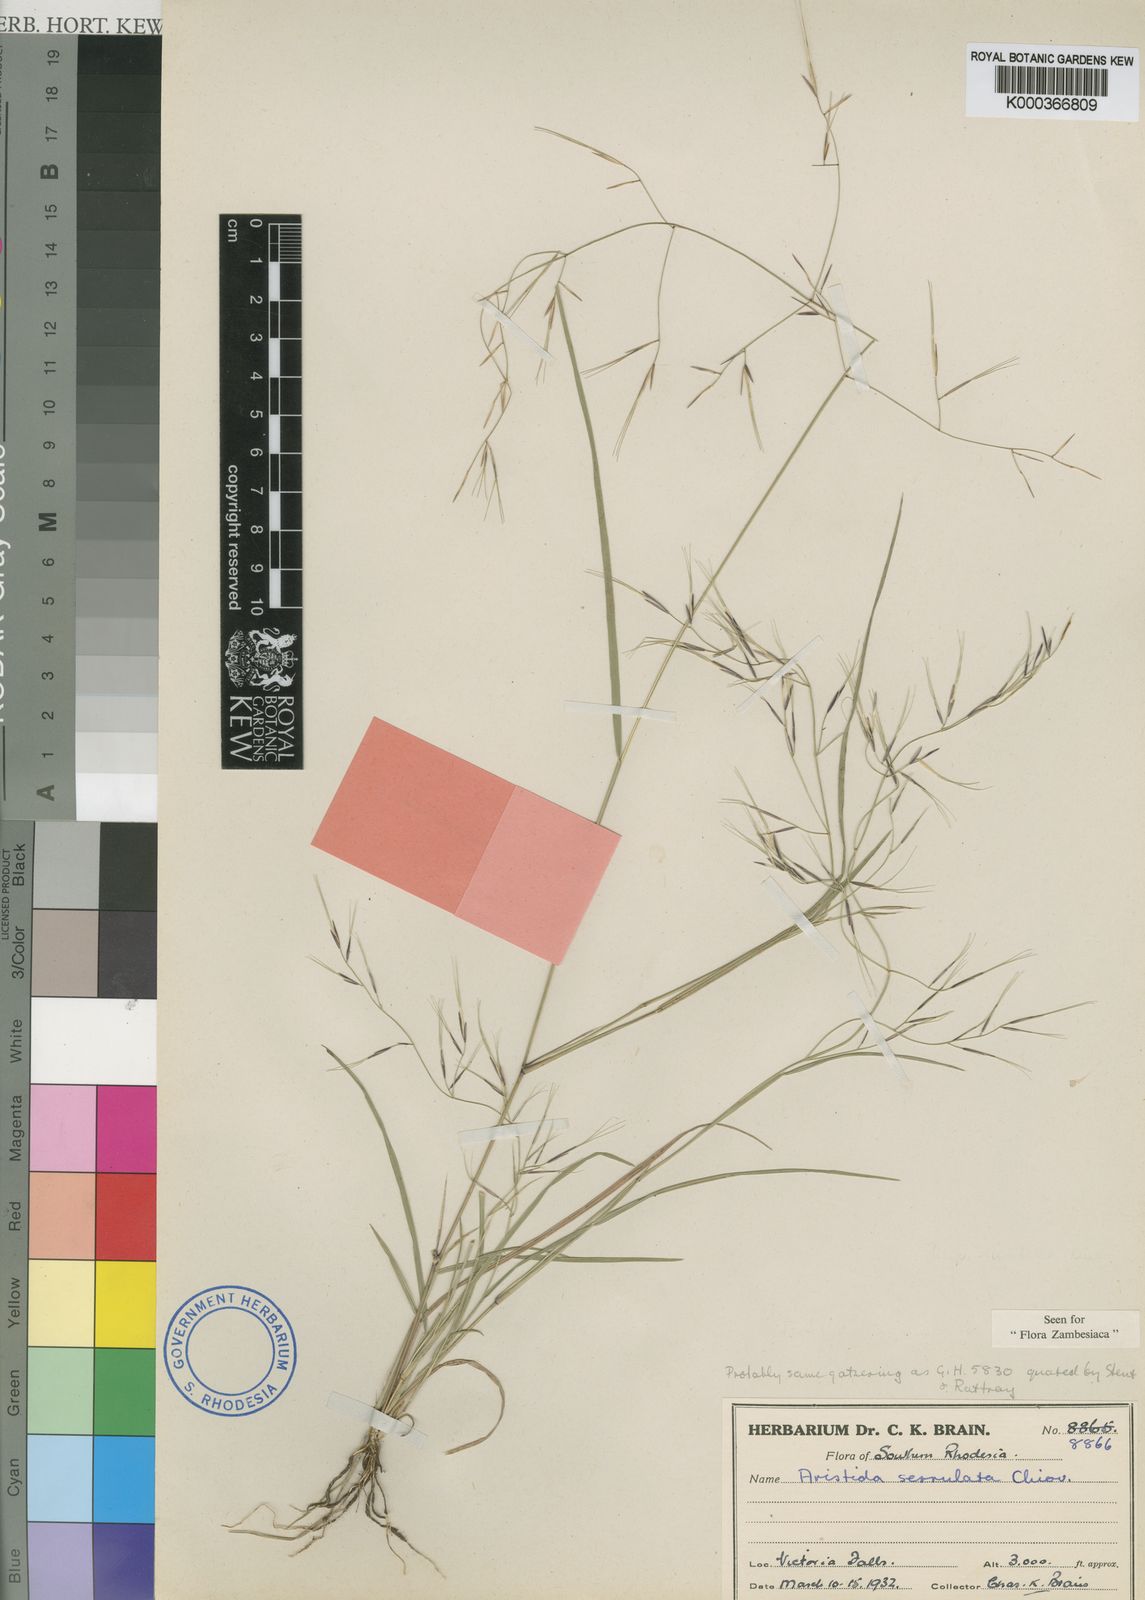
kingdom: Plantae
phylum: Tracheophyta
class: Liliopsida
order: Poales
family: Poaceae
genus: Aristida
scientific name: Aristida brainii
